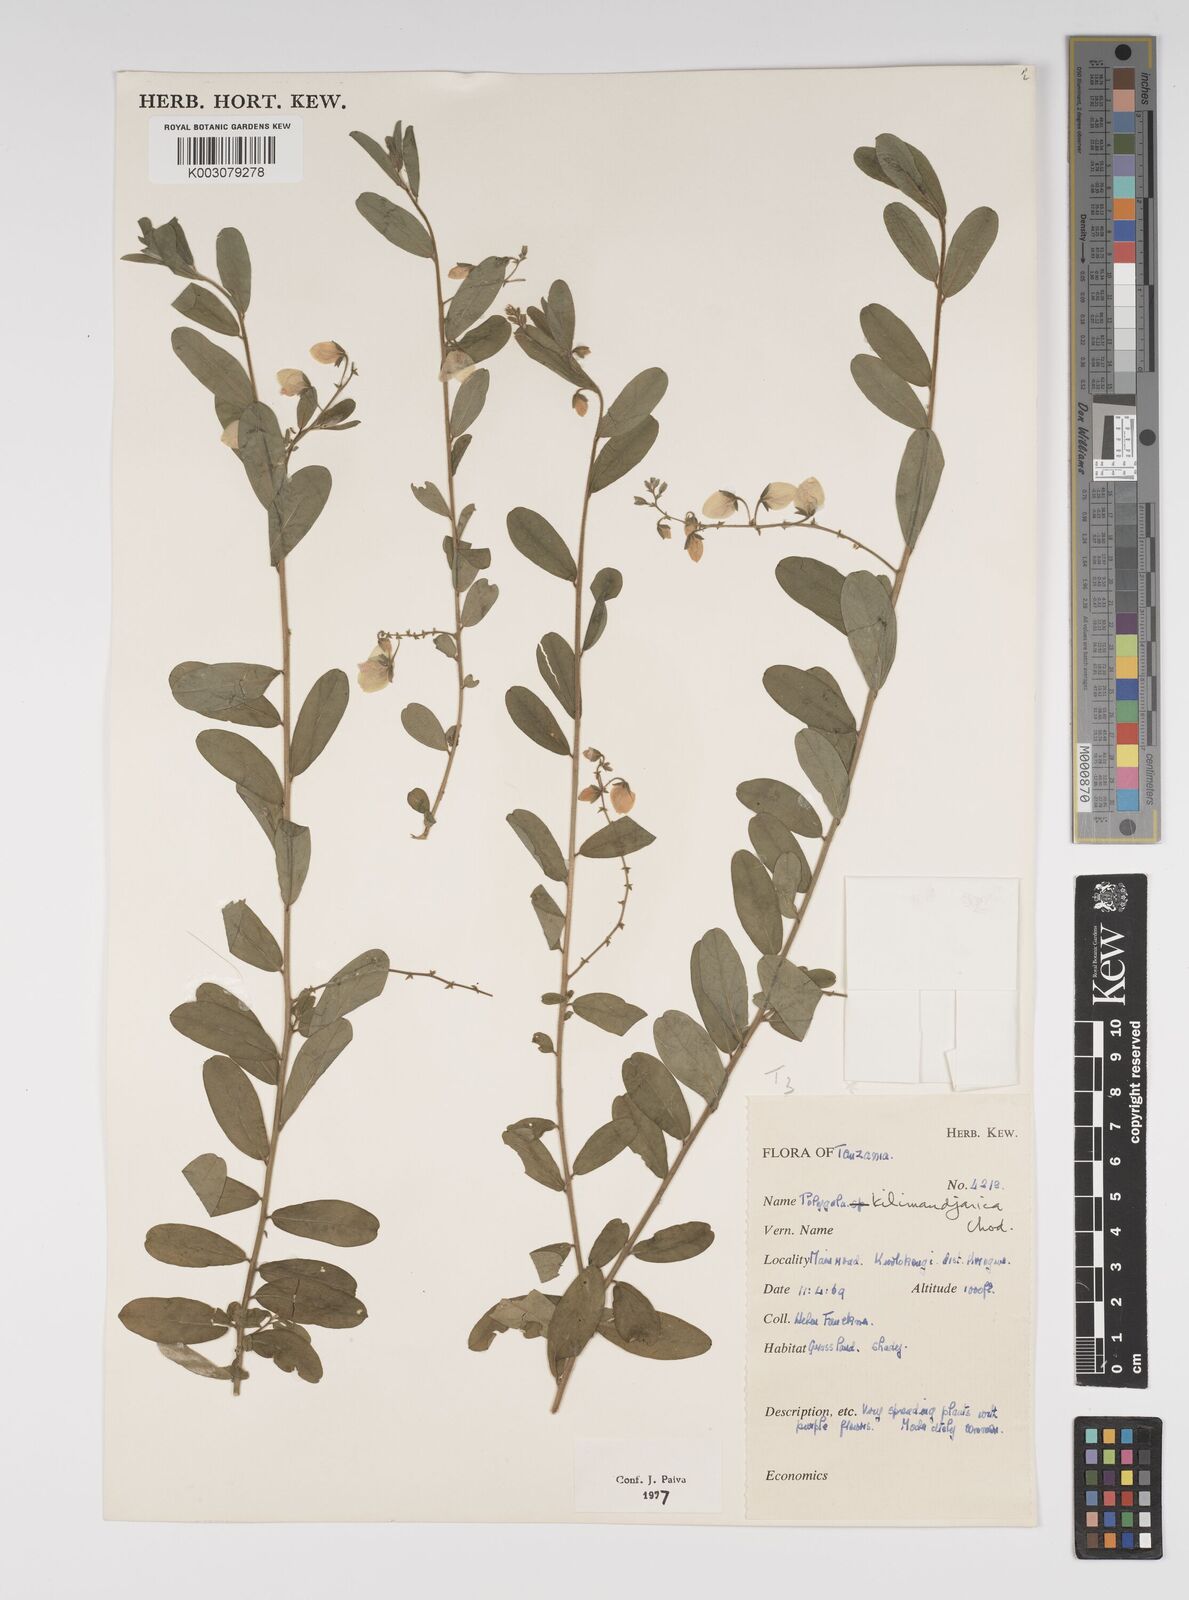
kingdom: Plantae
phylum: Tracheophyta
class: Magnoliopsida
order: Fabales
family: Polygalaceae
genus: Polygala
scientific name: Polygala kilimandjarica
